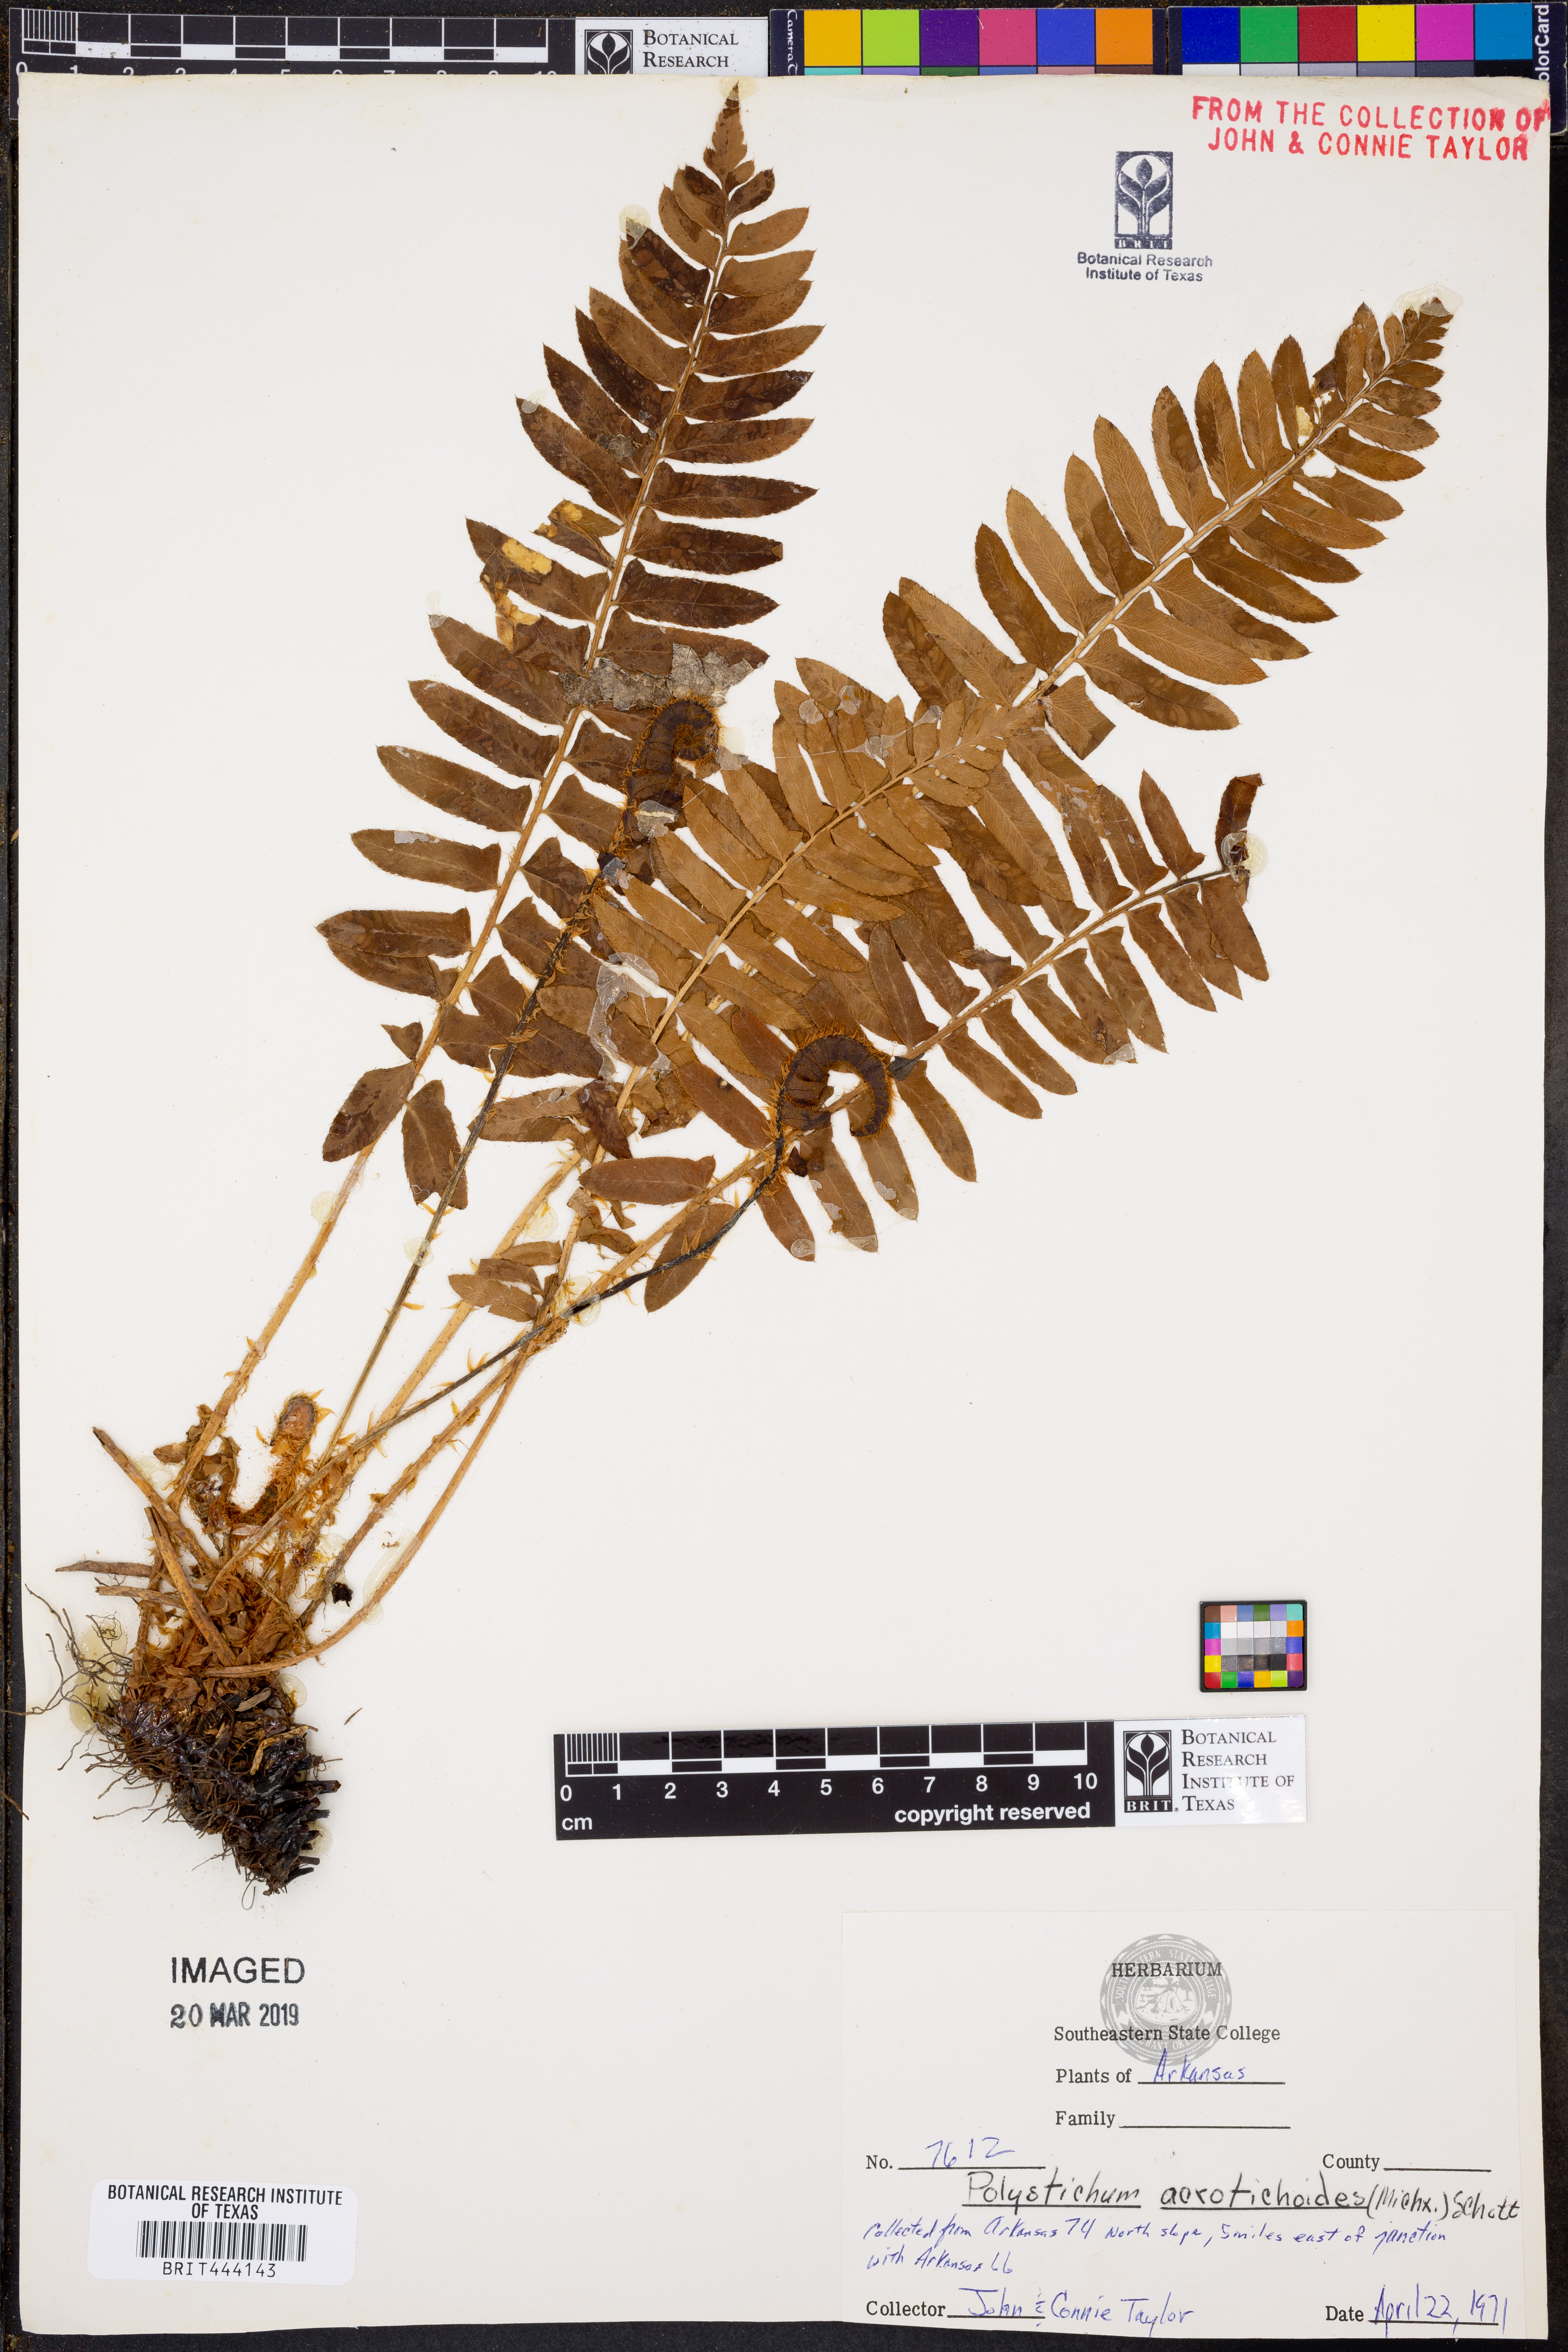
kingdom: Plantae
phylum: Tracheophyta
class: Polypodiopsida
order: Polypodiales
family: Dryopteridaceae
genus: Polystichum
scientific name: Polystichum acrostichoides
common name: Christmas fern
